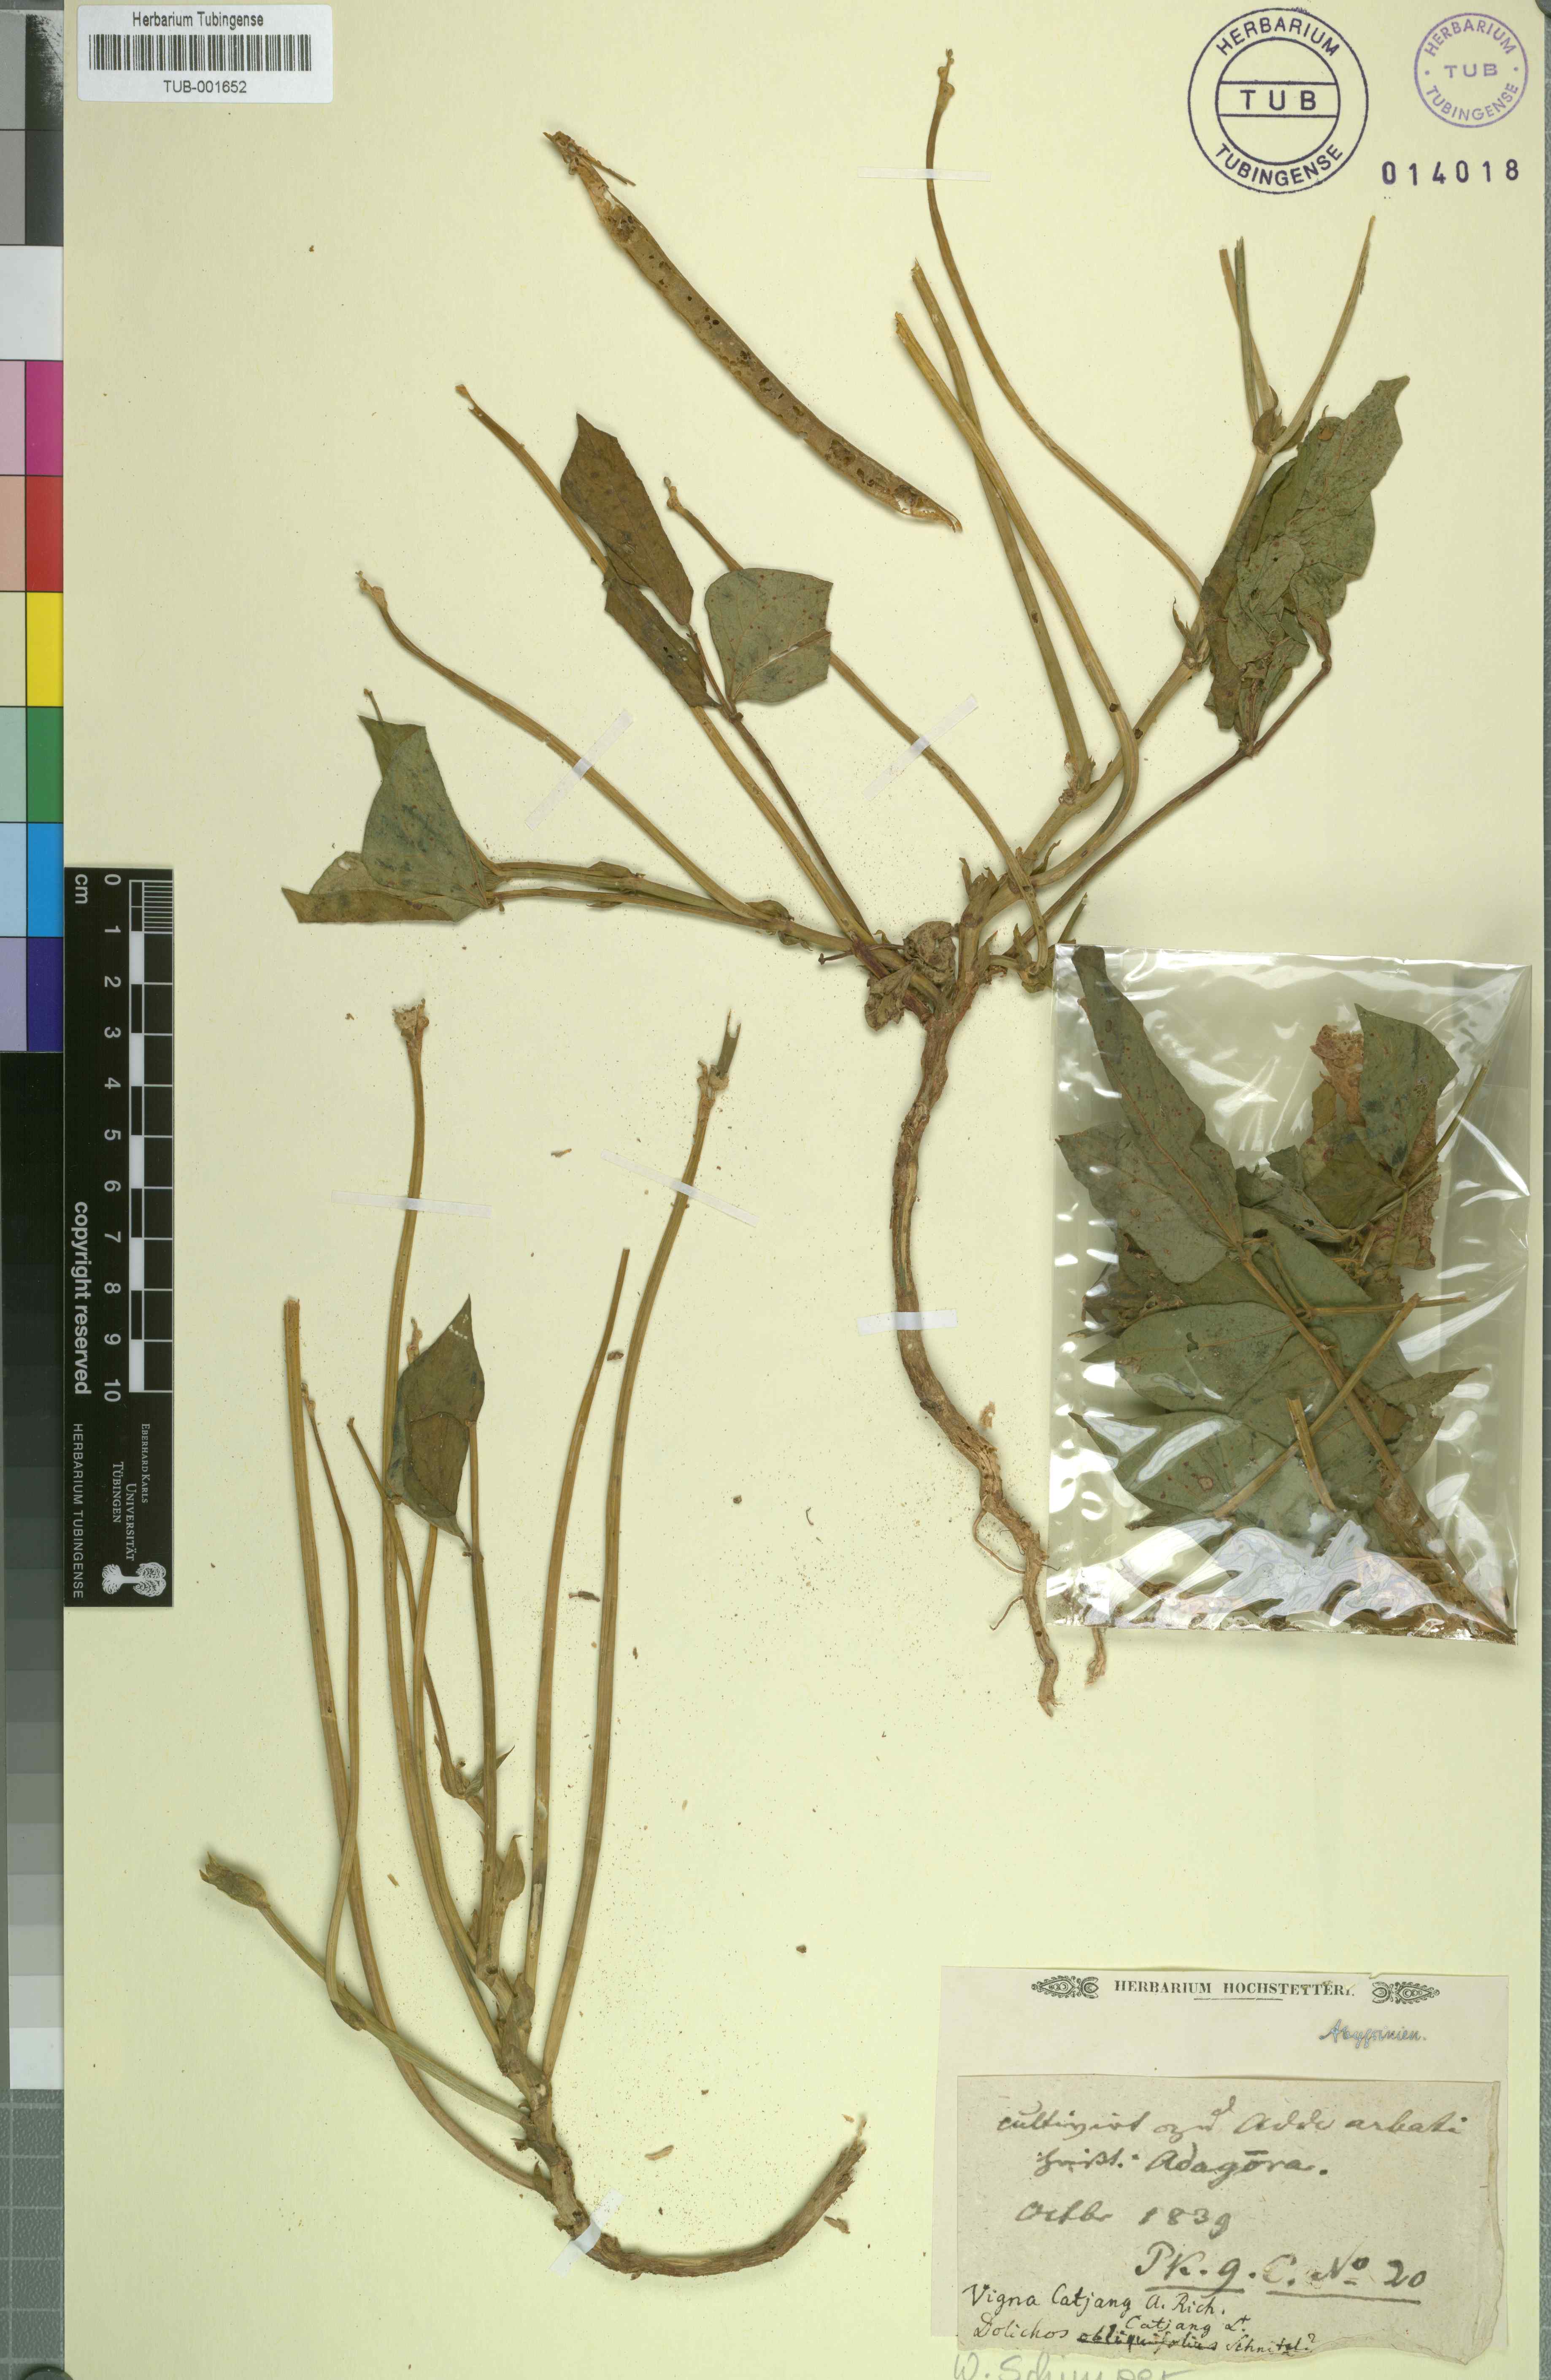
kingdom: Plantae
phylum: Tracheophyta
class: Magnoliopsida
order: Fabales
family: Fabaceae
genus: Vigna
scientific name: Vigna unguiculata
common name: Cowpea
